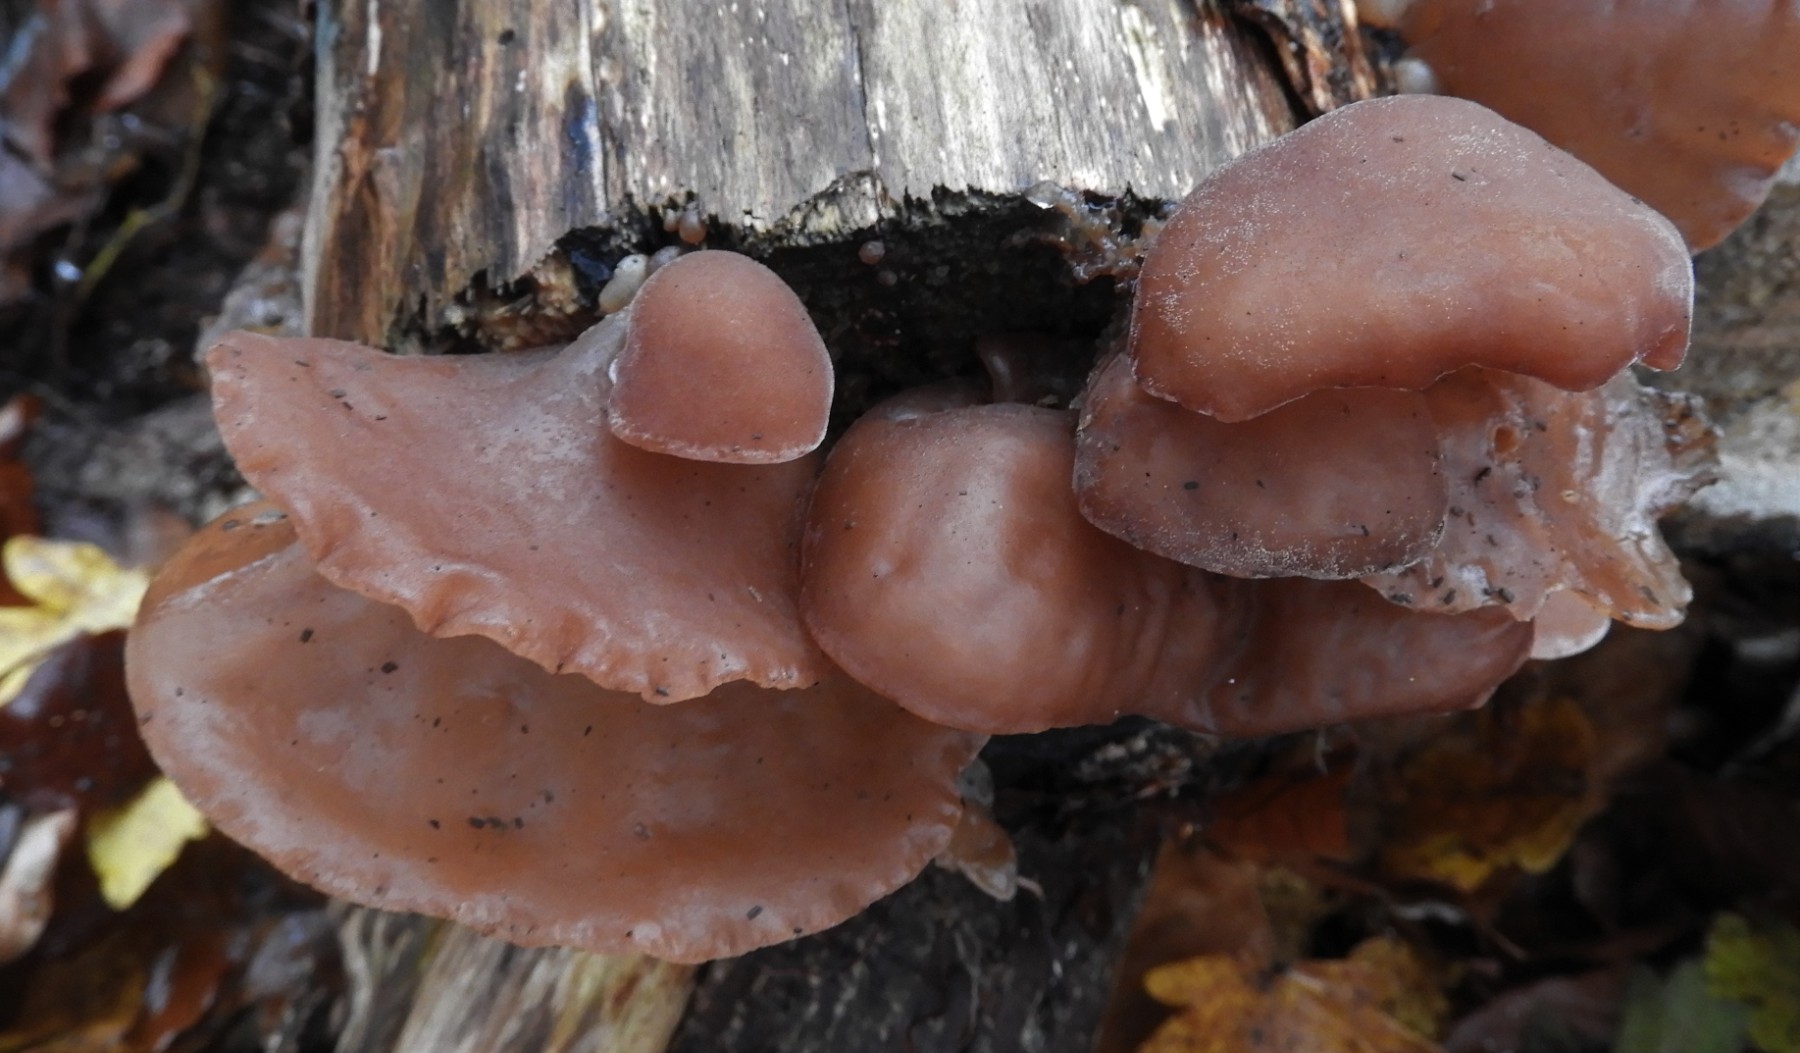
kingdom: Fungi
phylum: Basidiomycota
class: Agaricomycetes
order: Auriculariales
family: Auriculariaceae
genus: Auricularia
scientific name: Auricularia auricula-judae
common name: almindelig judasøre
